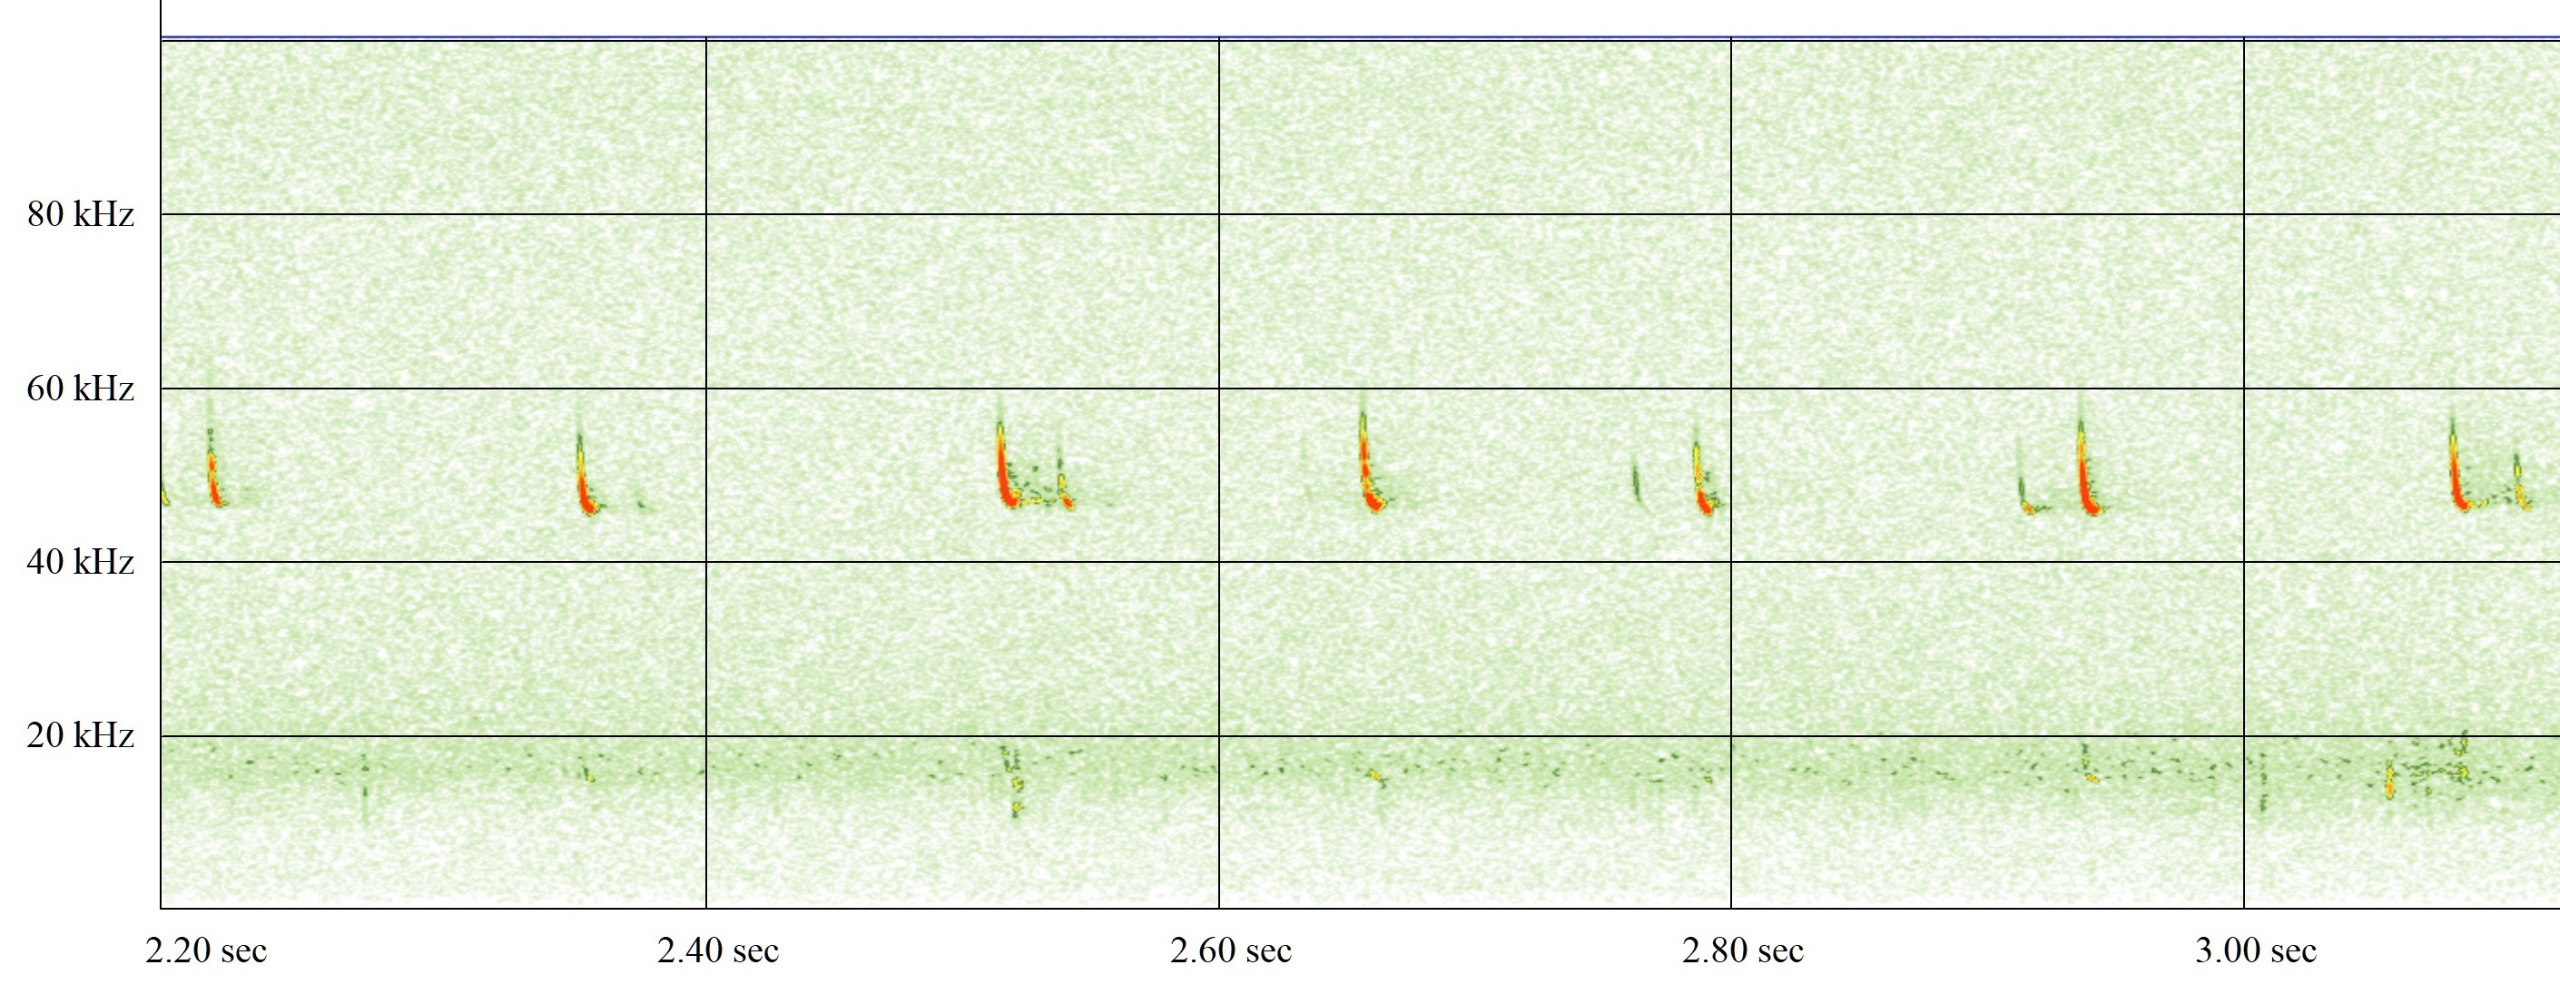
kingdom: Animalia
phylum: Chordata
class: Mammalia
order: Chiroptera
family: Vespertilionidae
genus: Pipistrellus
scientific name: Pipistrellus pipistrellus
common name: Pipistrelflagermus
